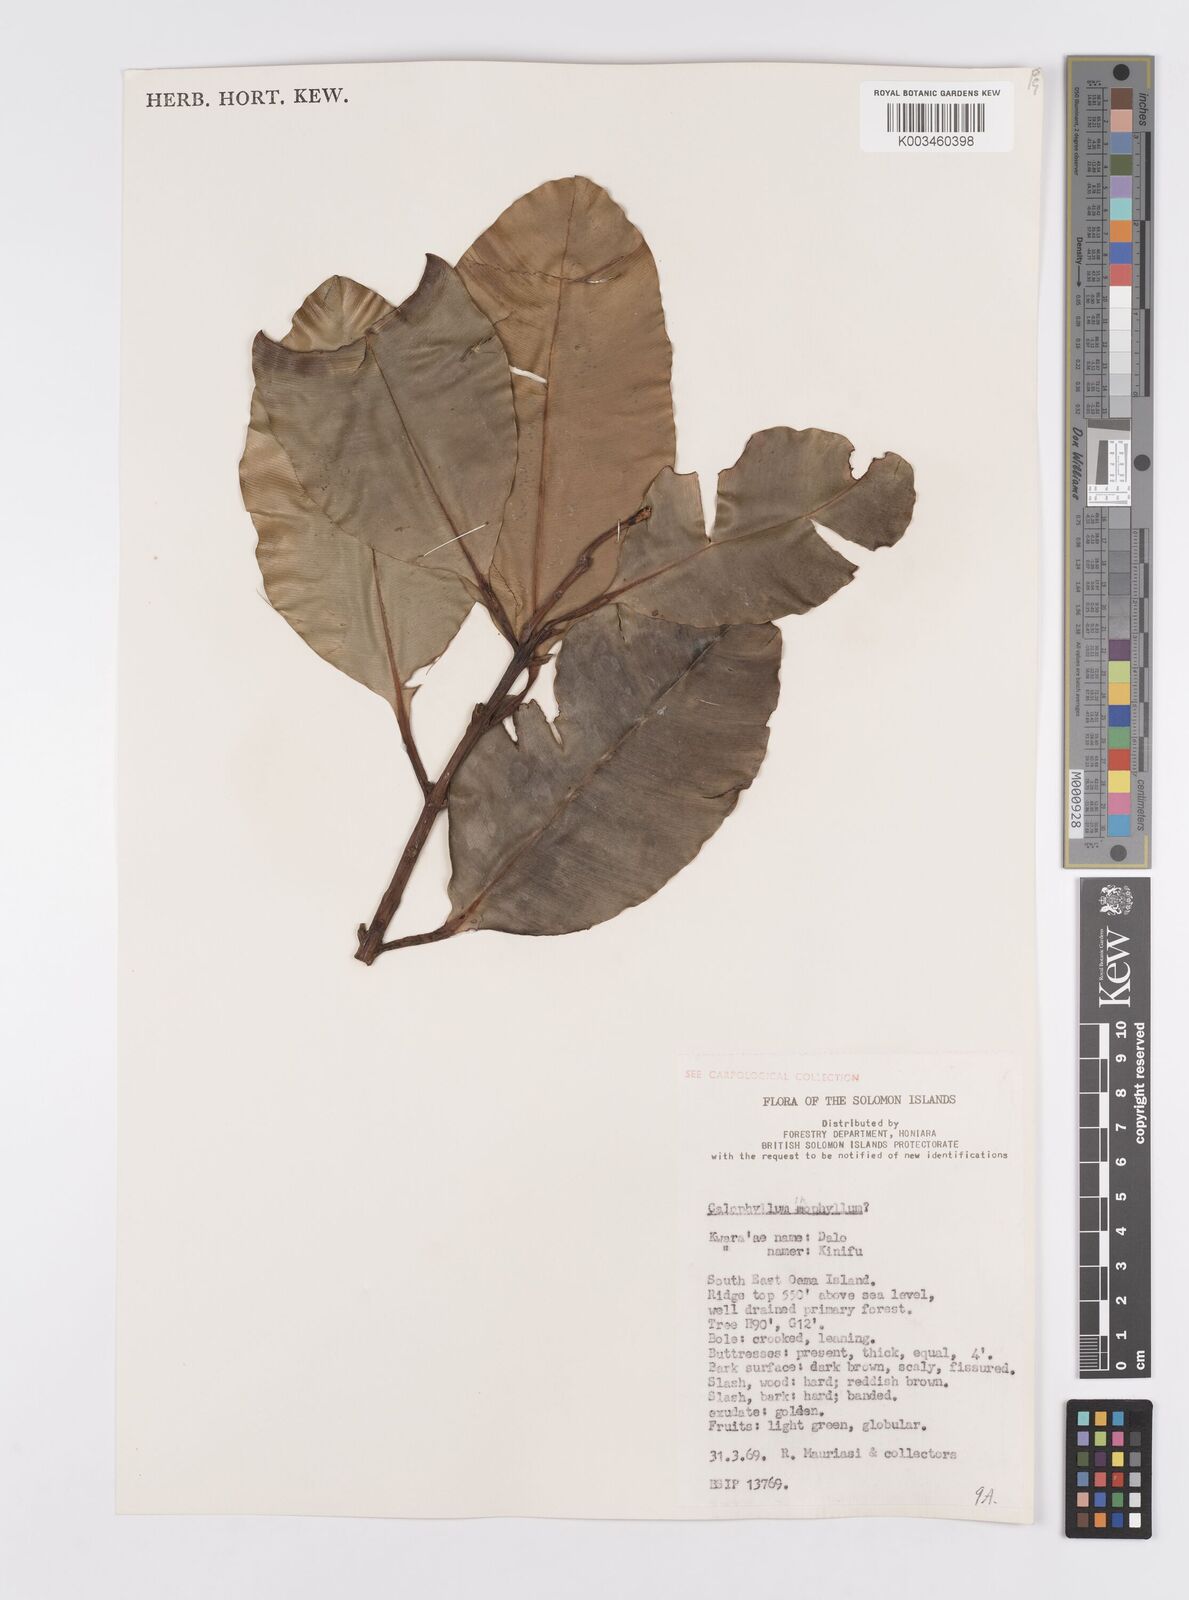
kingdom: Plantae
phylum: Tracheophyta
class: Magnoliopsida
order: Malpighiales
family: Calophyllaceae
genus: Calophyllum
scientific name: Calophyllum inophyllum
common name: Alexandrian laurel
